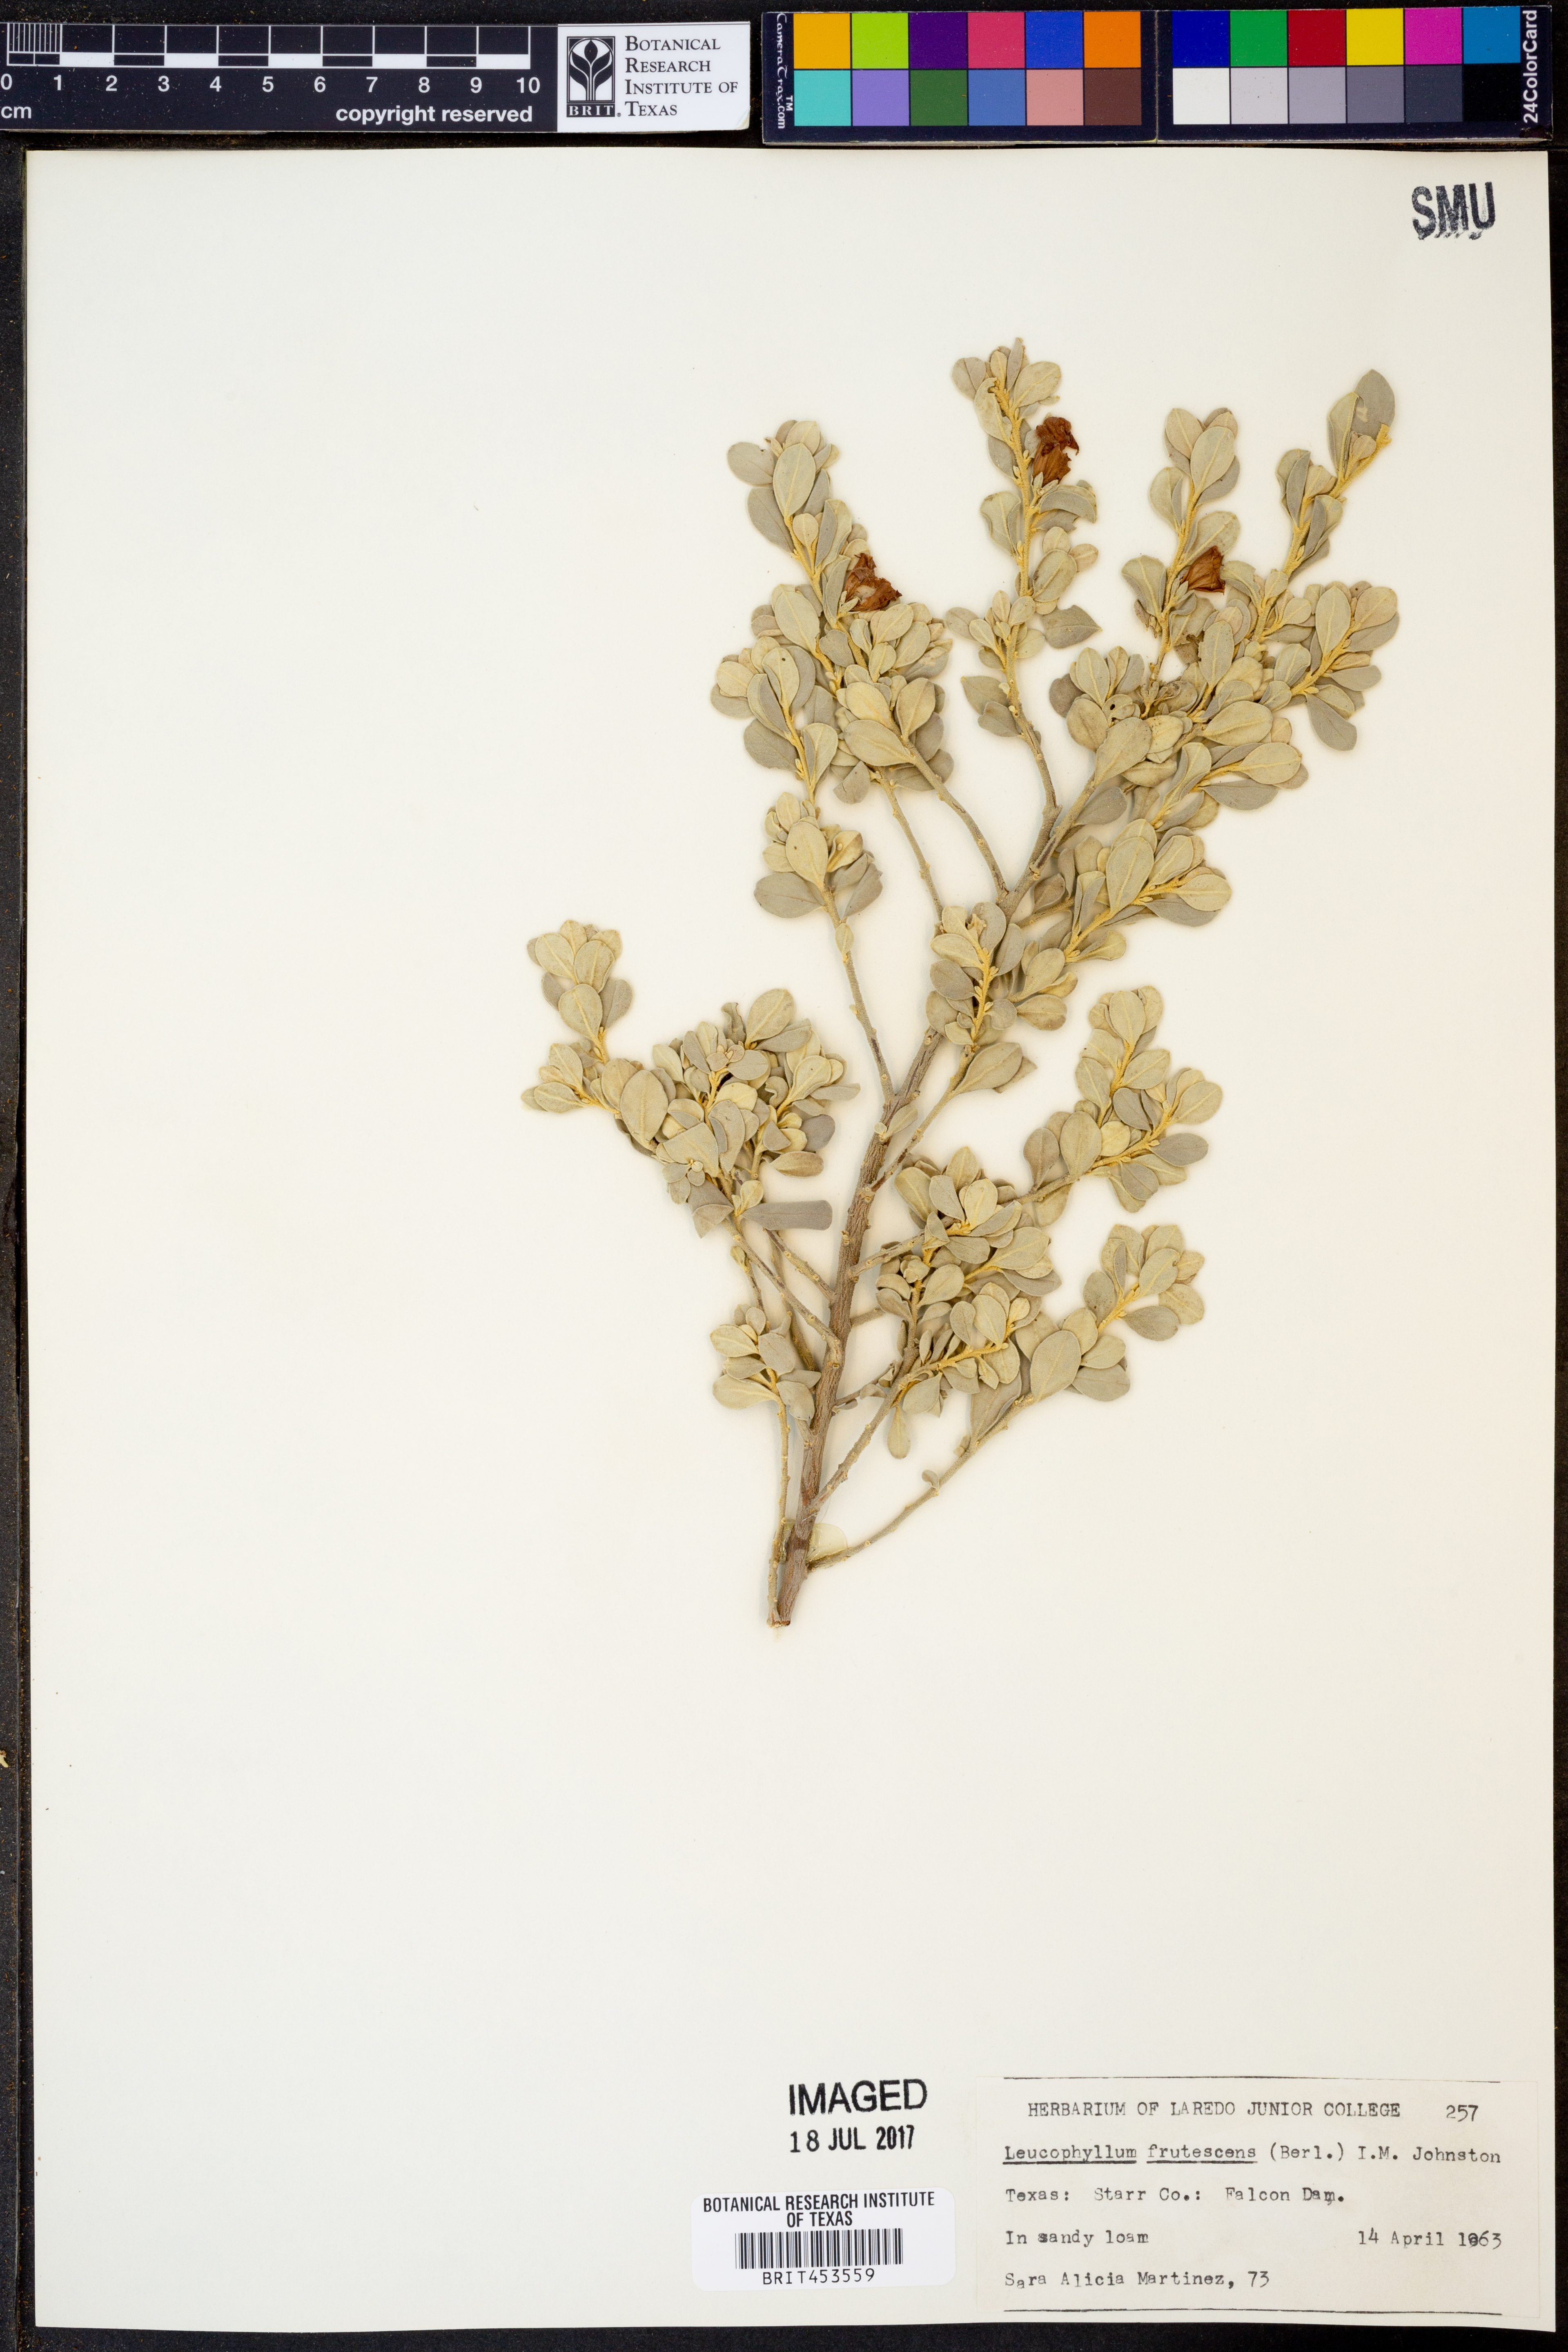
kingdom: Plantae
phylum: Tracheophyta
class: Magnoliopsida
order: Lamiales
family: Scrophulariaceae
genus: Leucophyllum
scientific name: Leucophyllum frutescens
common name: Texas silverleaf
